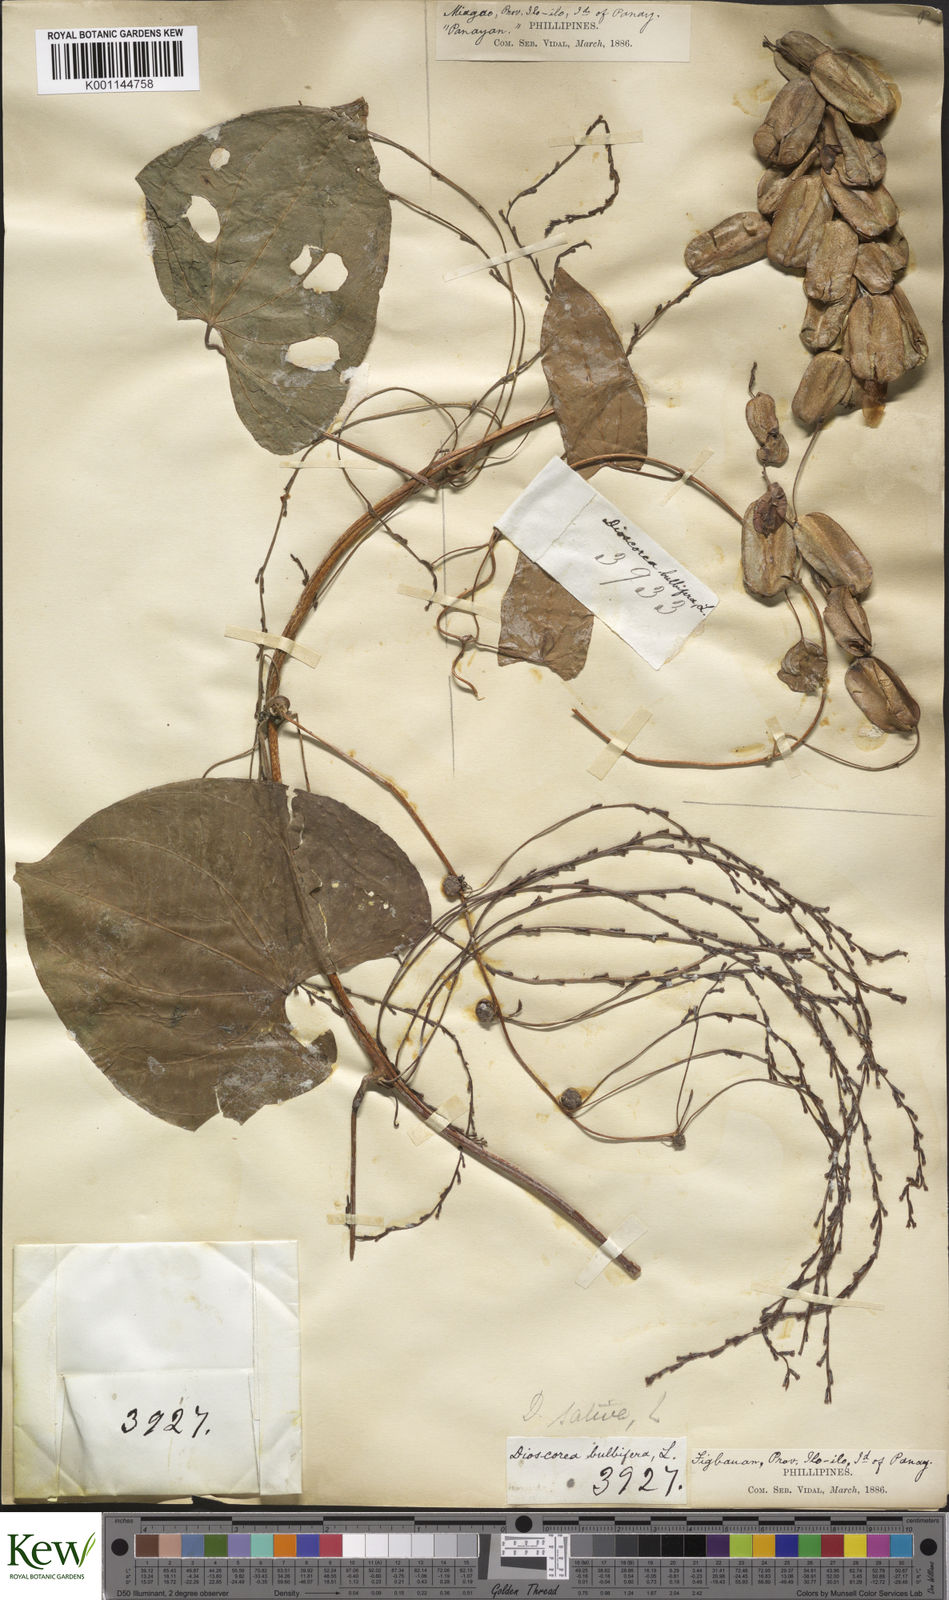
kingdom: Plantae
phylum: Tracheophyta
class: Liliopsida
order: Dioscoreales
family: Dioscoreaceae
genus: Dioscorea
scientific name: Dioscorea bulbifera
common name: Air yam
